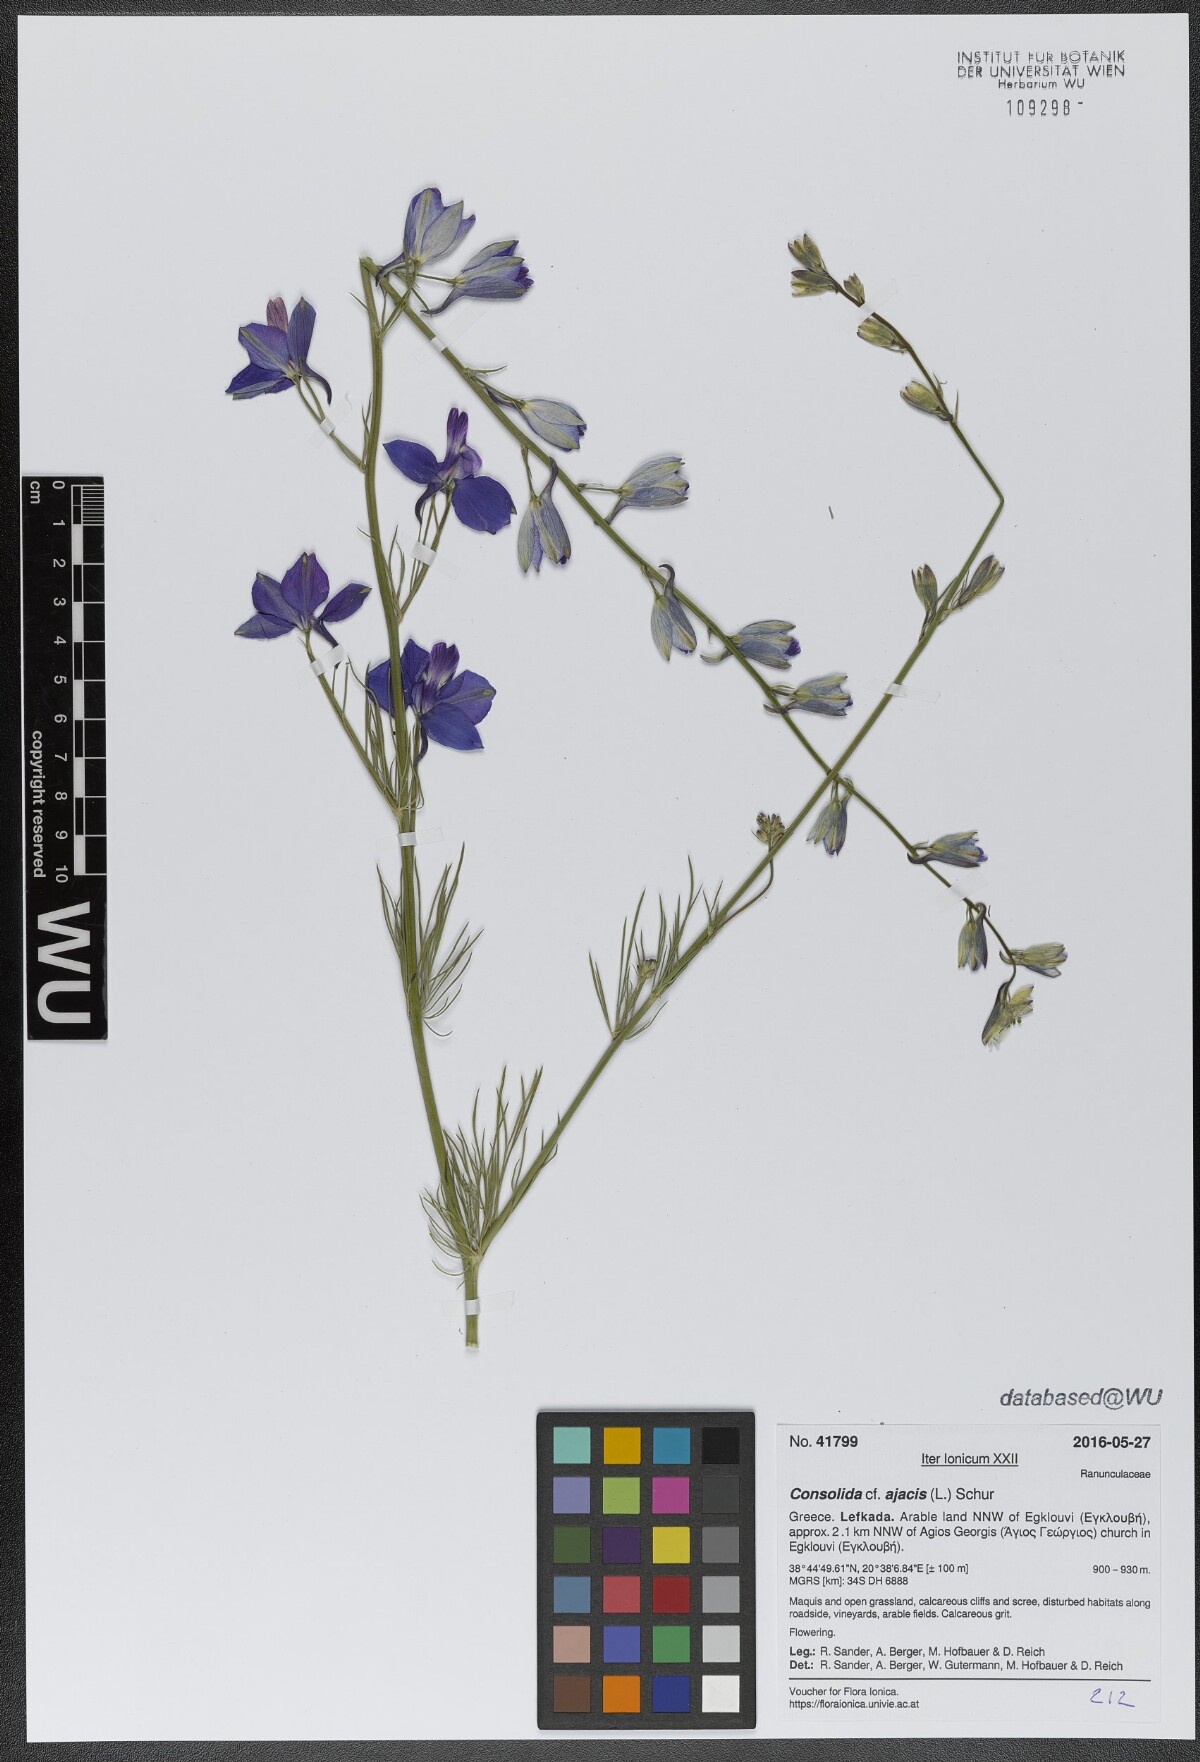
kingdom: Plantae
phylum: Tracheophyta
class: Magnoliopsida
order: Ranunculales
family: Ranunculaceae
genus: Delphinium
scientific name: Delphinium ajacis
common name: Doubtful knight's-spur
